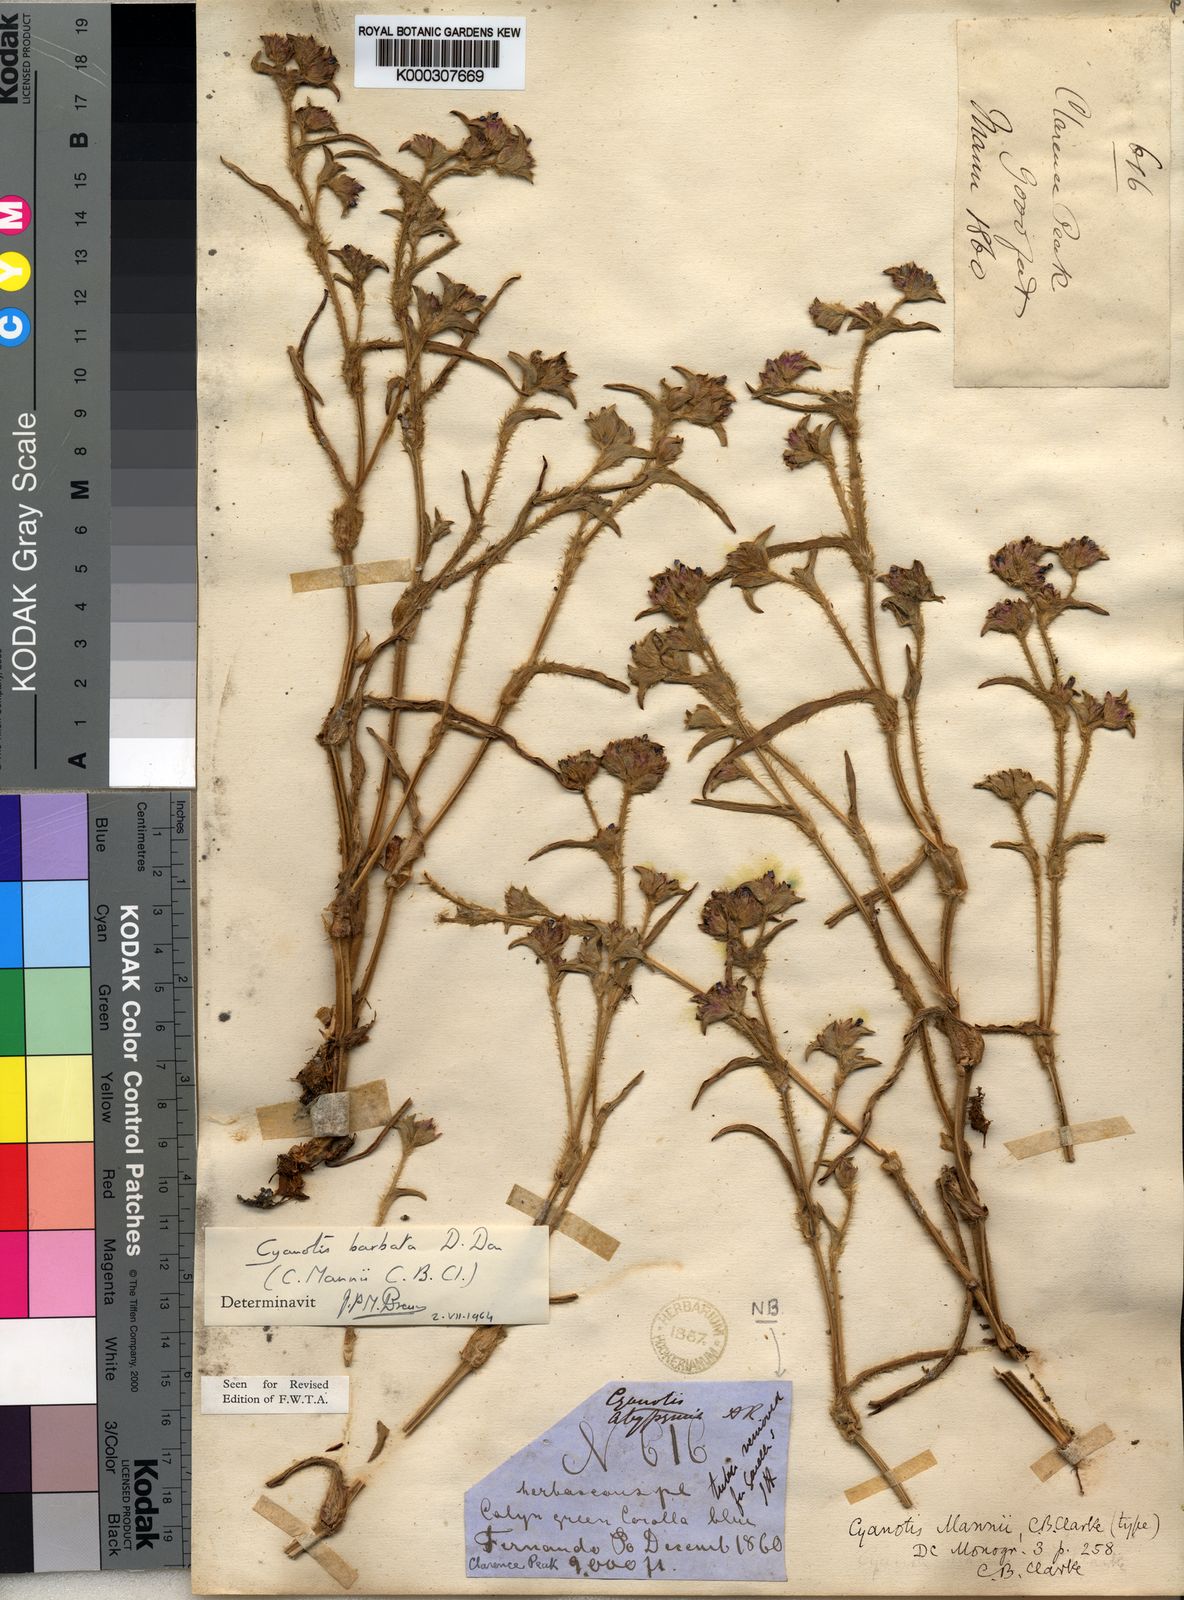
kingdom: Plantae
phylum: Tracheophyta
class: Liliopsida
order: Commelinales
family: Commelinaceae
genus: Cyanotis
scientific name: Cyanotis vaga
